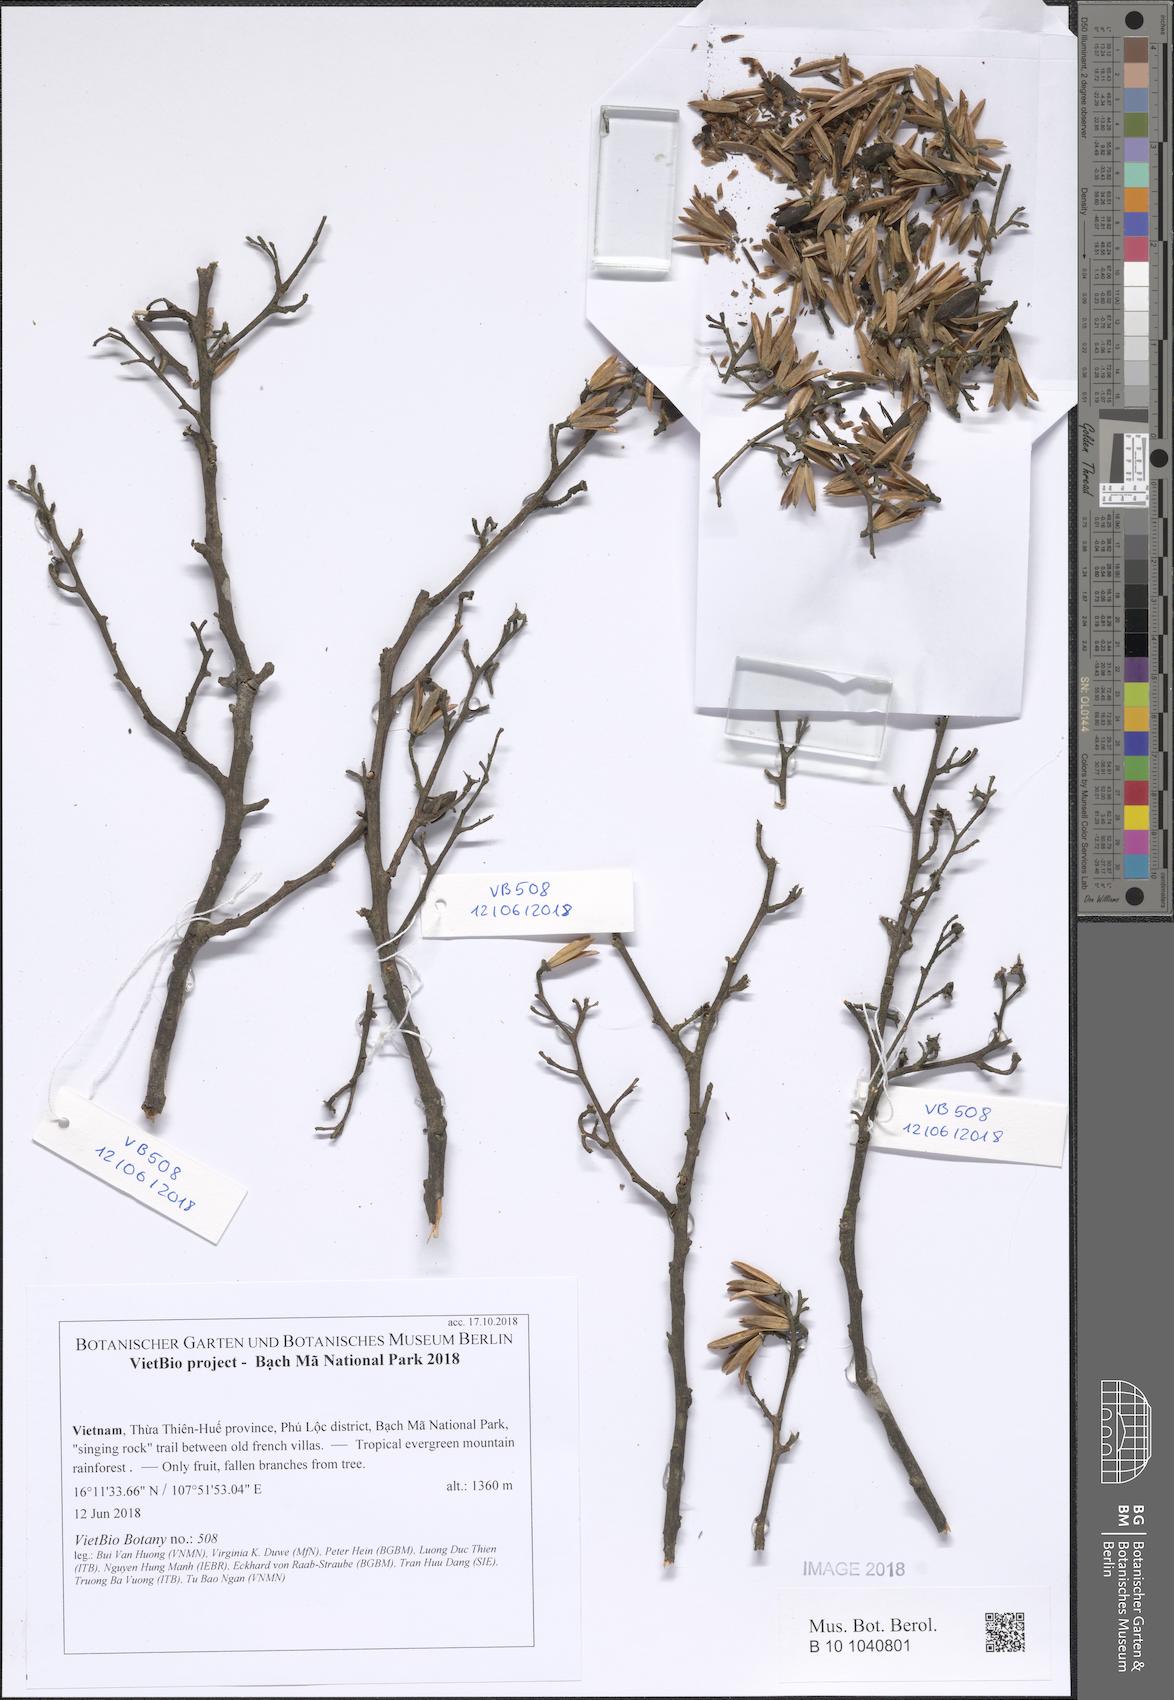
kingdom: Plantae
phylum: Tracheophyta
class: Magnoliopsida
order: Ericales
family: Ericaceae
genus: Rhododendron
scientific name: Rhododendron
